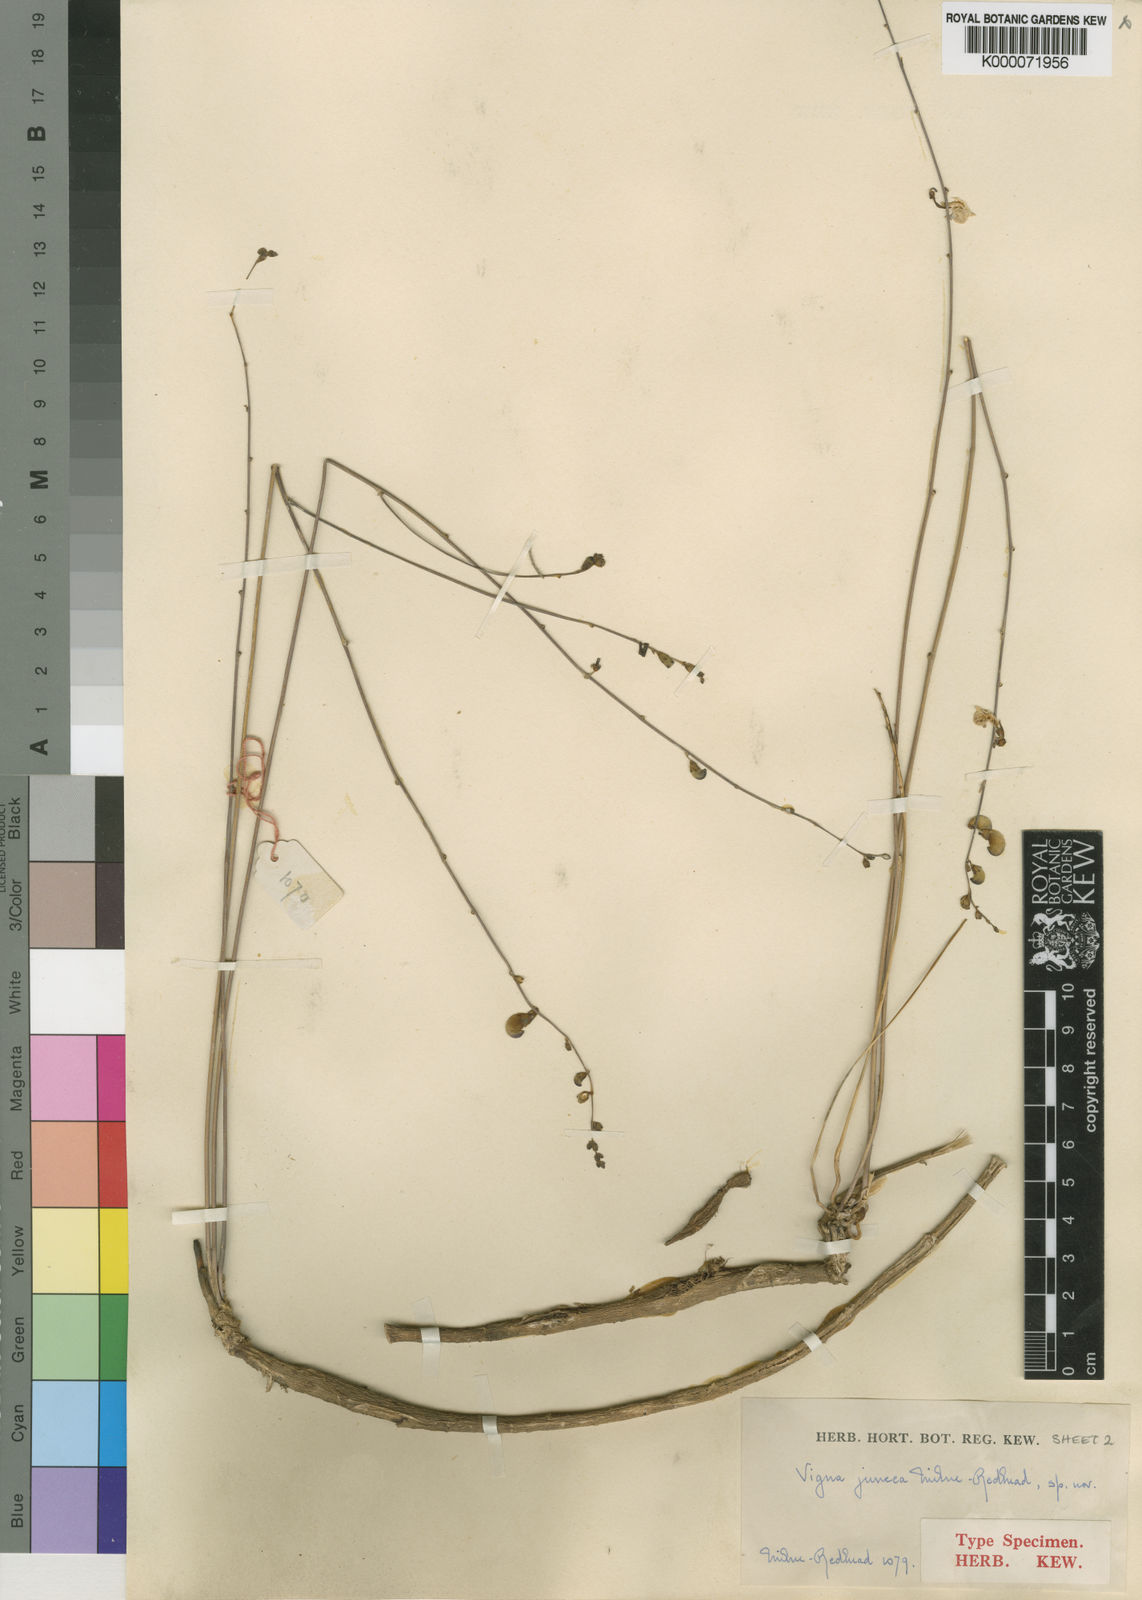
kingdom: Plantae
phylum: Tracheophyta
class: Magnoliopsida
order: Fabales
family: Fabaceae
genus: Vigna
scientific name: Vigna juncea
